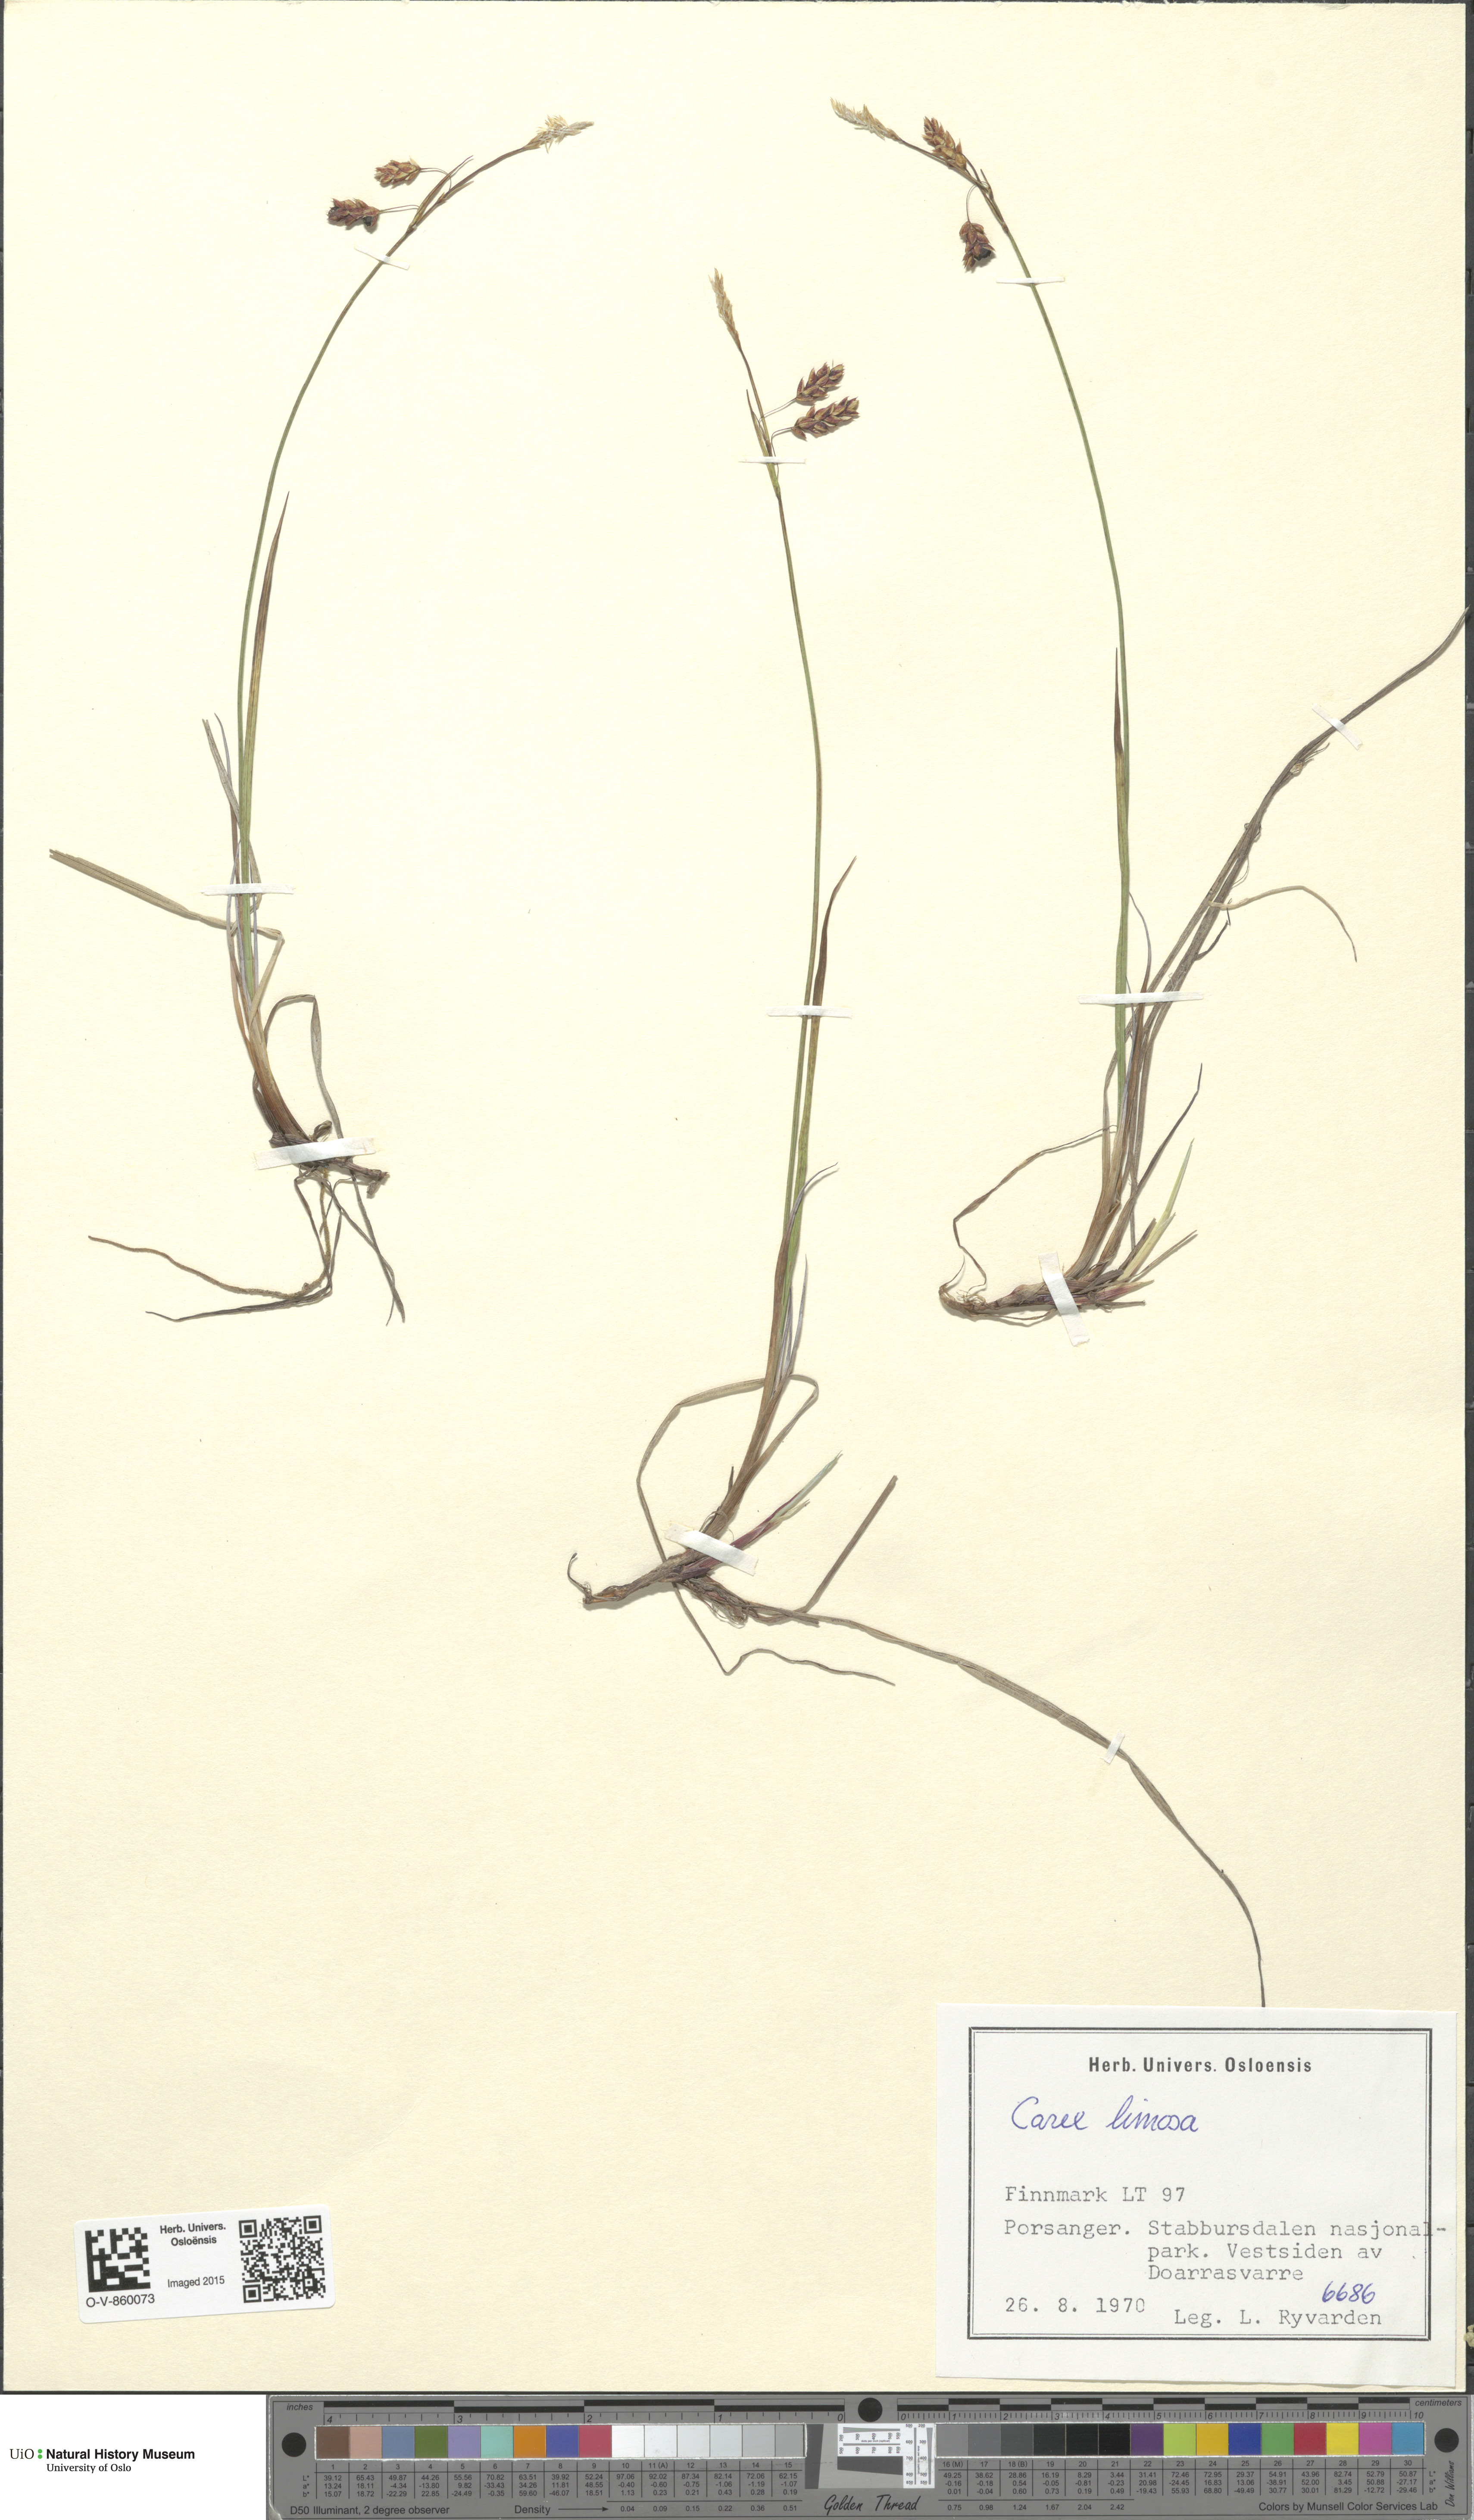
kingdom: Plantae
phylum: Tracheophyta
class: Liliopsida
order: Poales
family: Cyperaceae
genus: Carex
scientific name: Carex limosa
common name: Bog sedge
